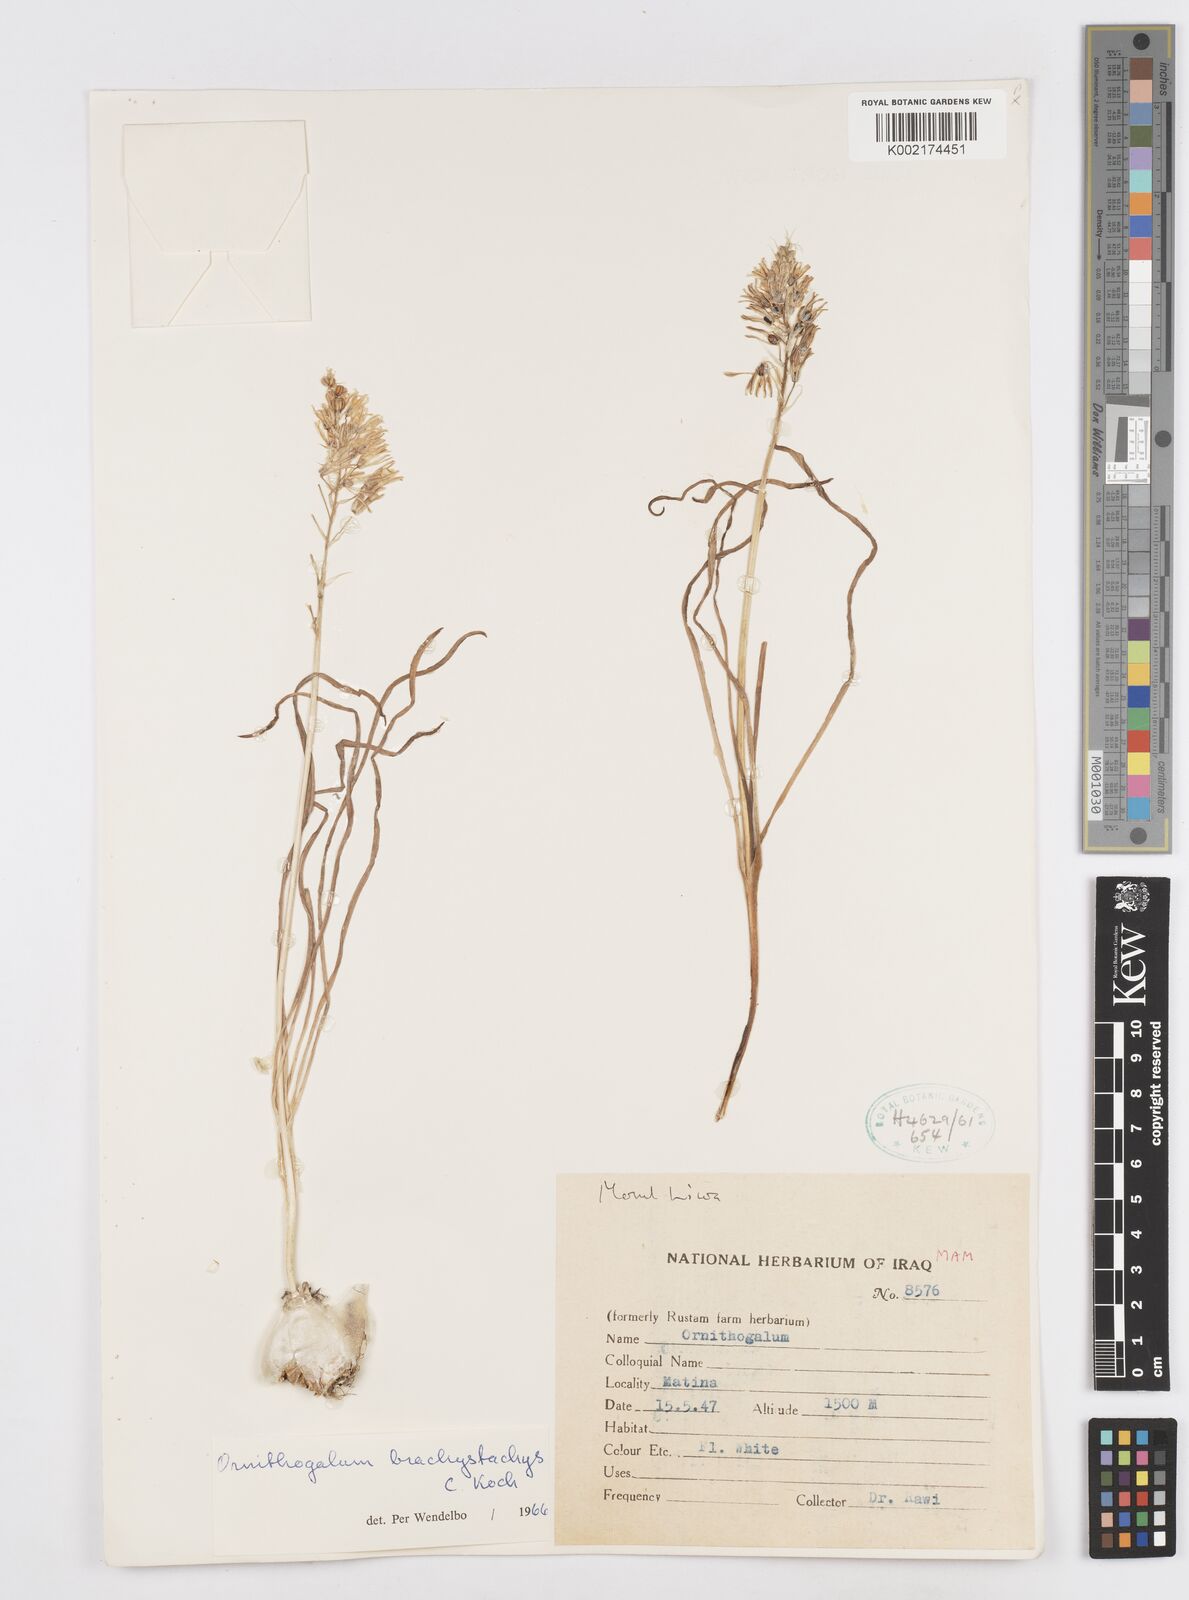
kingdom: Plantae
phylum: Tracheophyta
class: Liliopsida
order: Asparagales
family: Asparagaceae
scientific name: Asparagaceae
